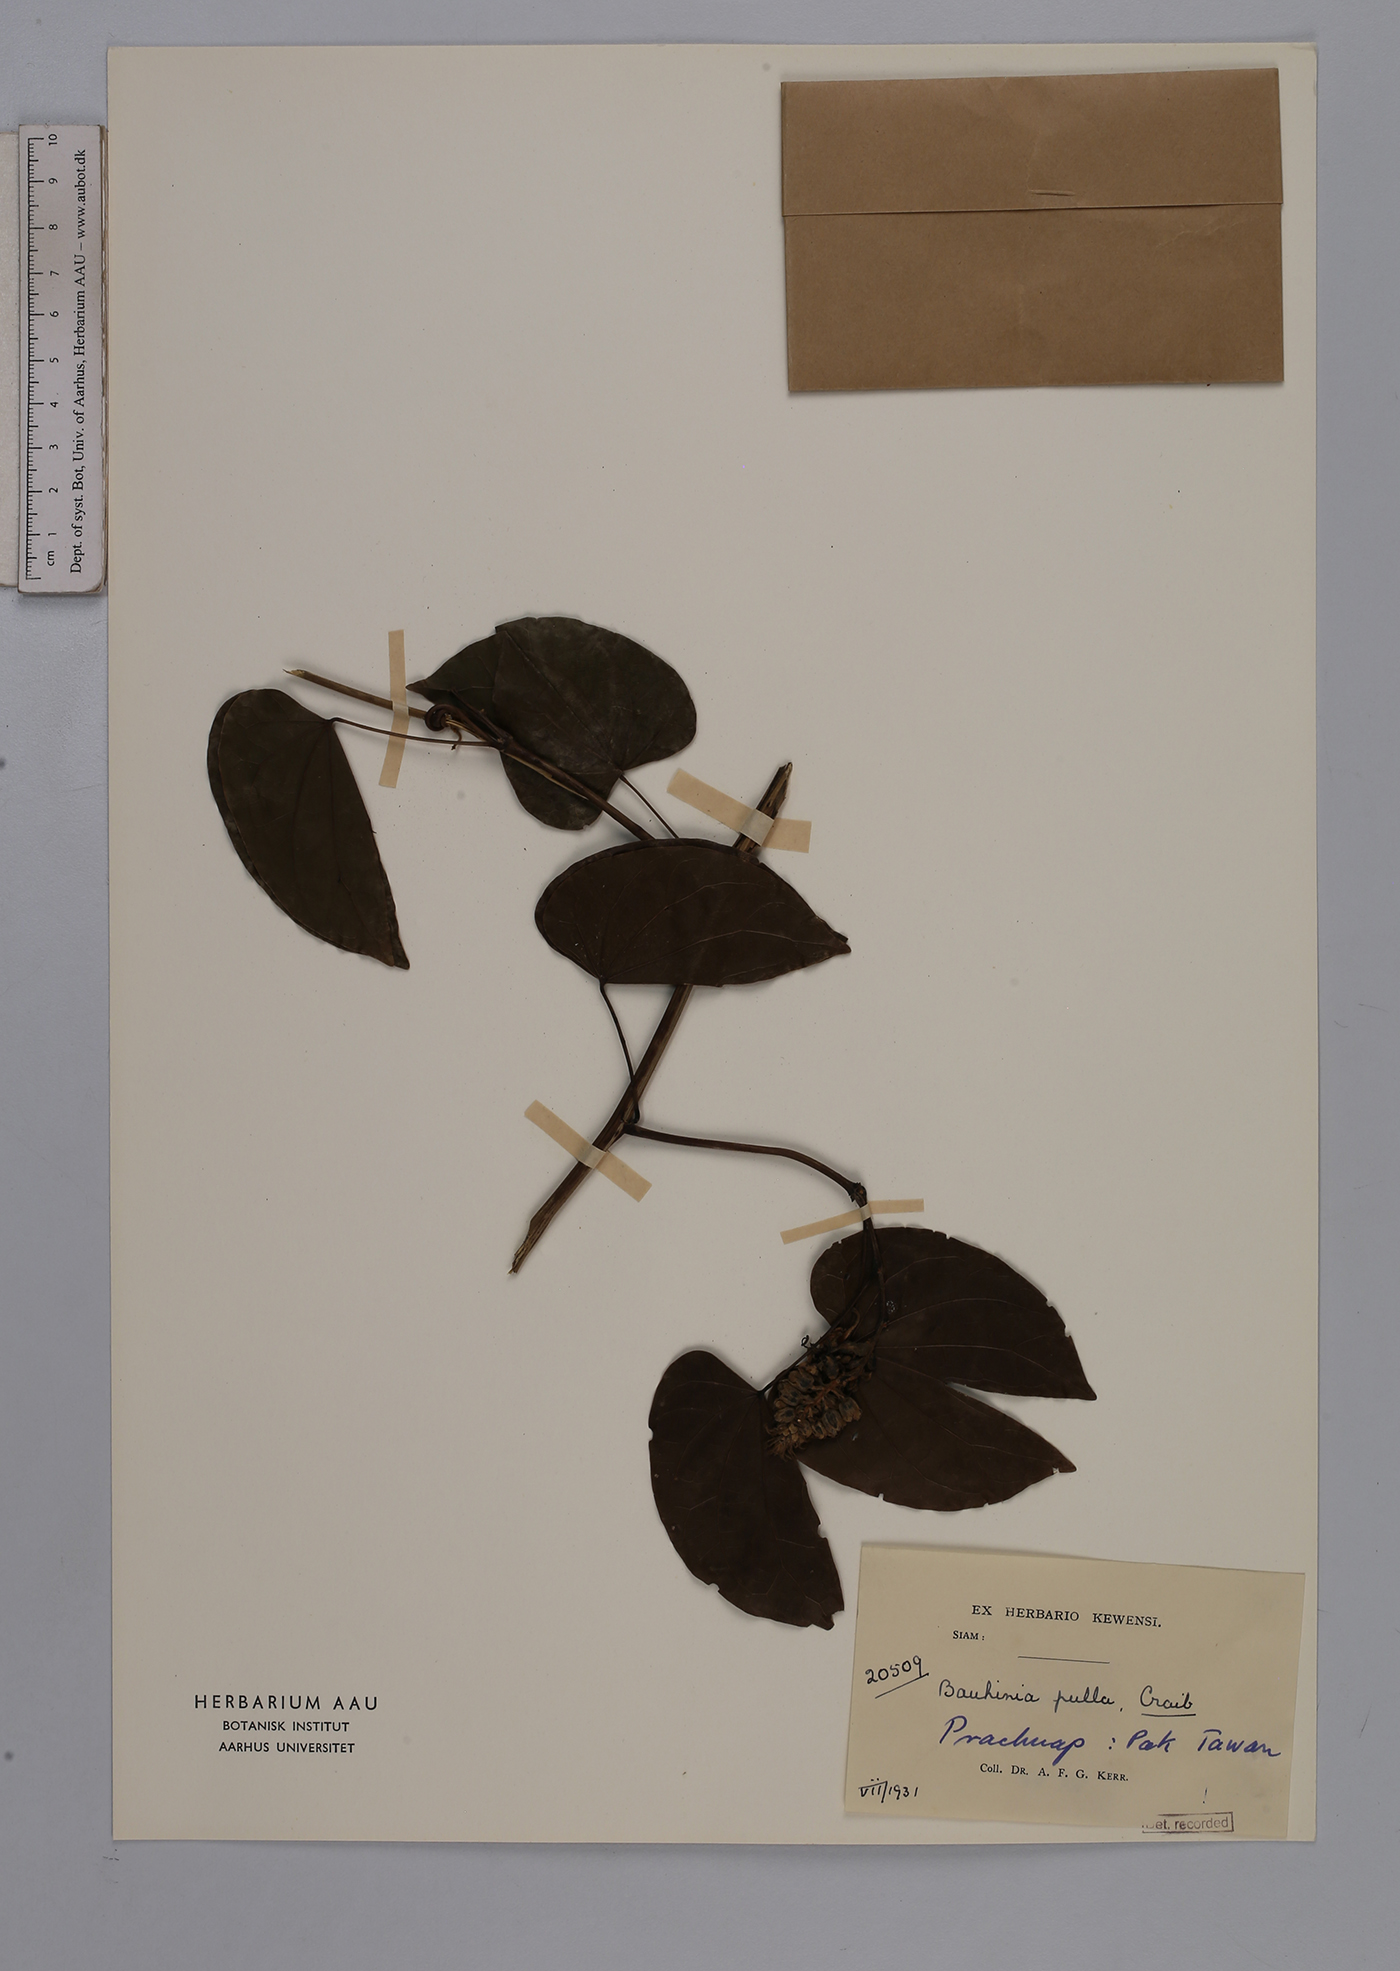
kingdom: Plantae
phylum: Tracheophyta
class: Magnoliopsida
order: Fabales
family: Fabaceae
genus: Phanera
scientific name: Phanera pulla
